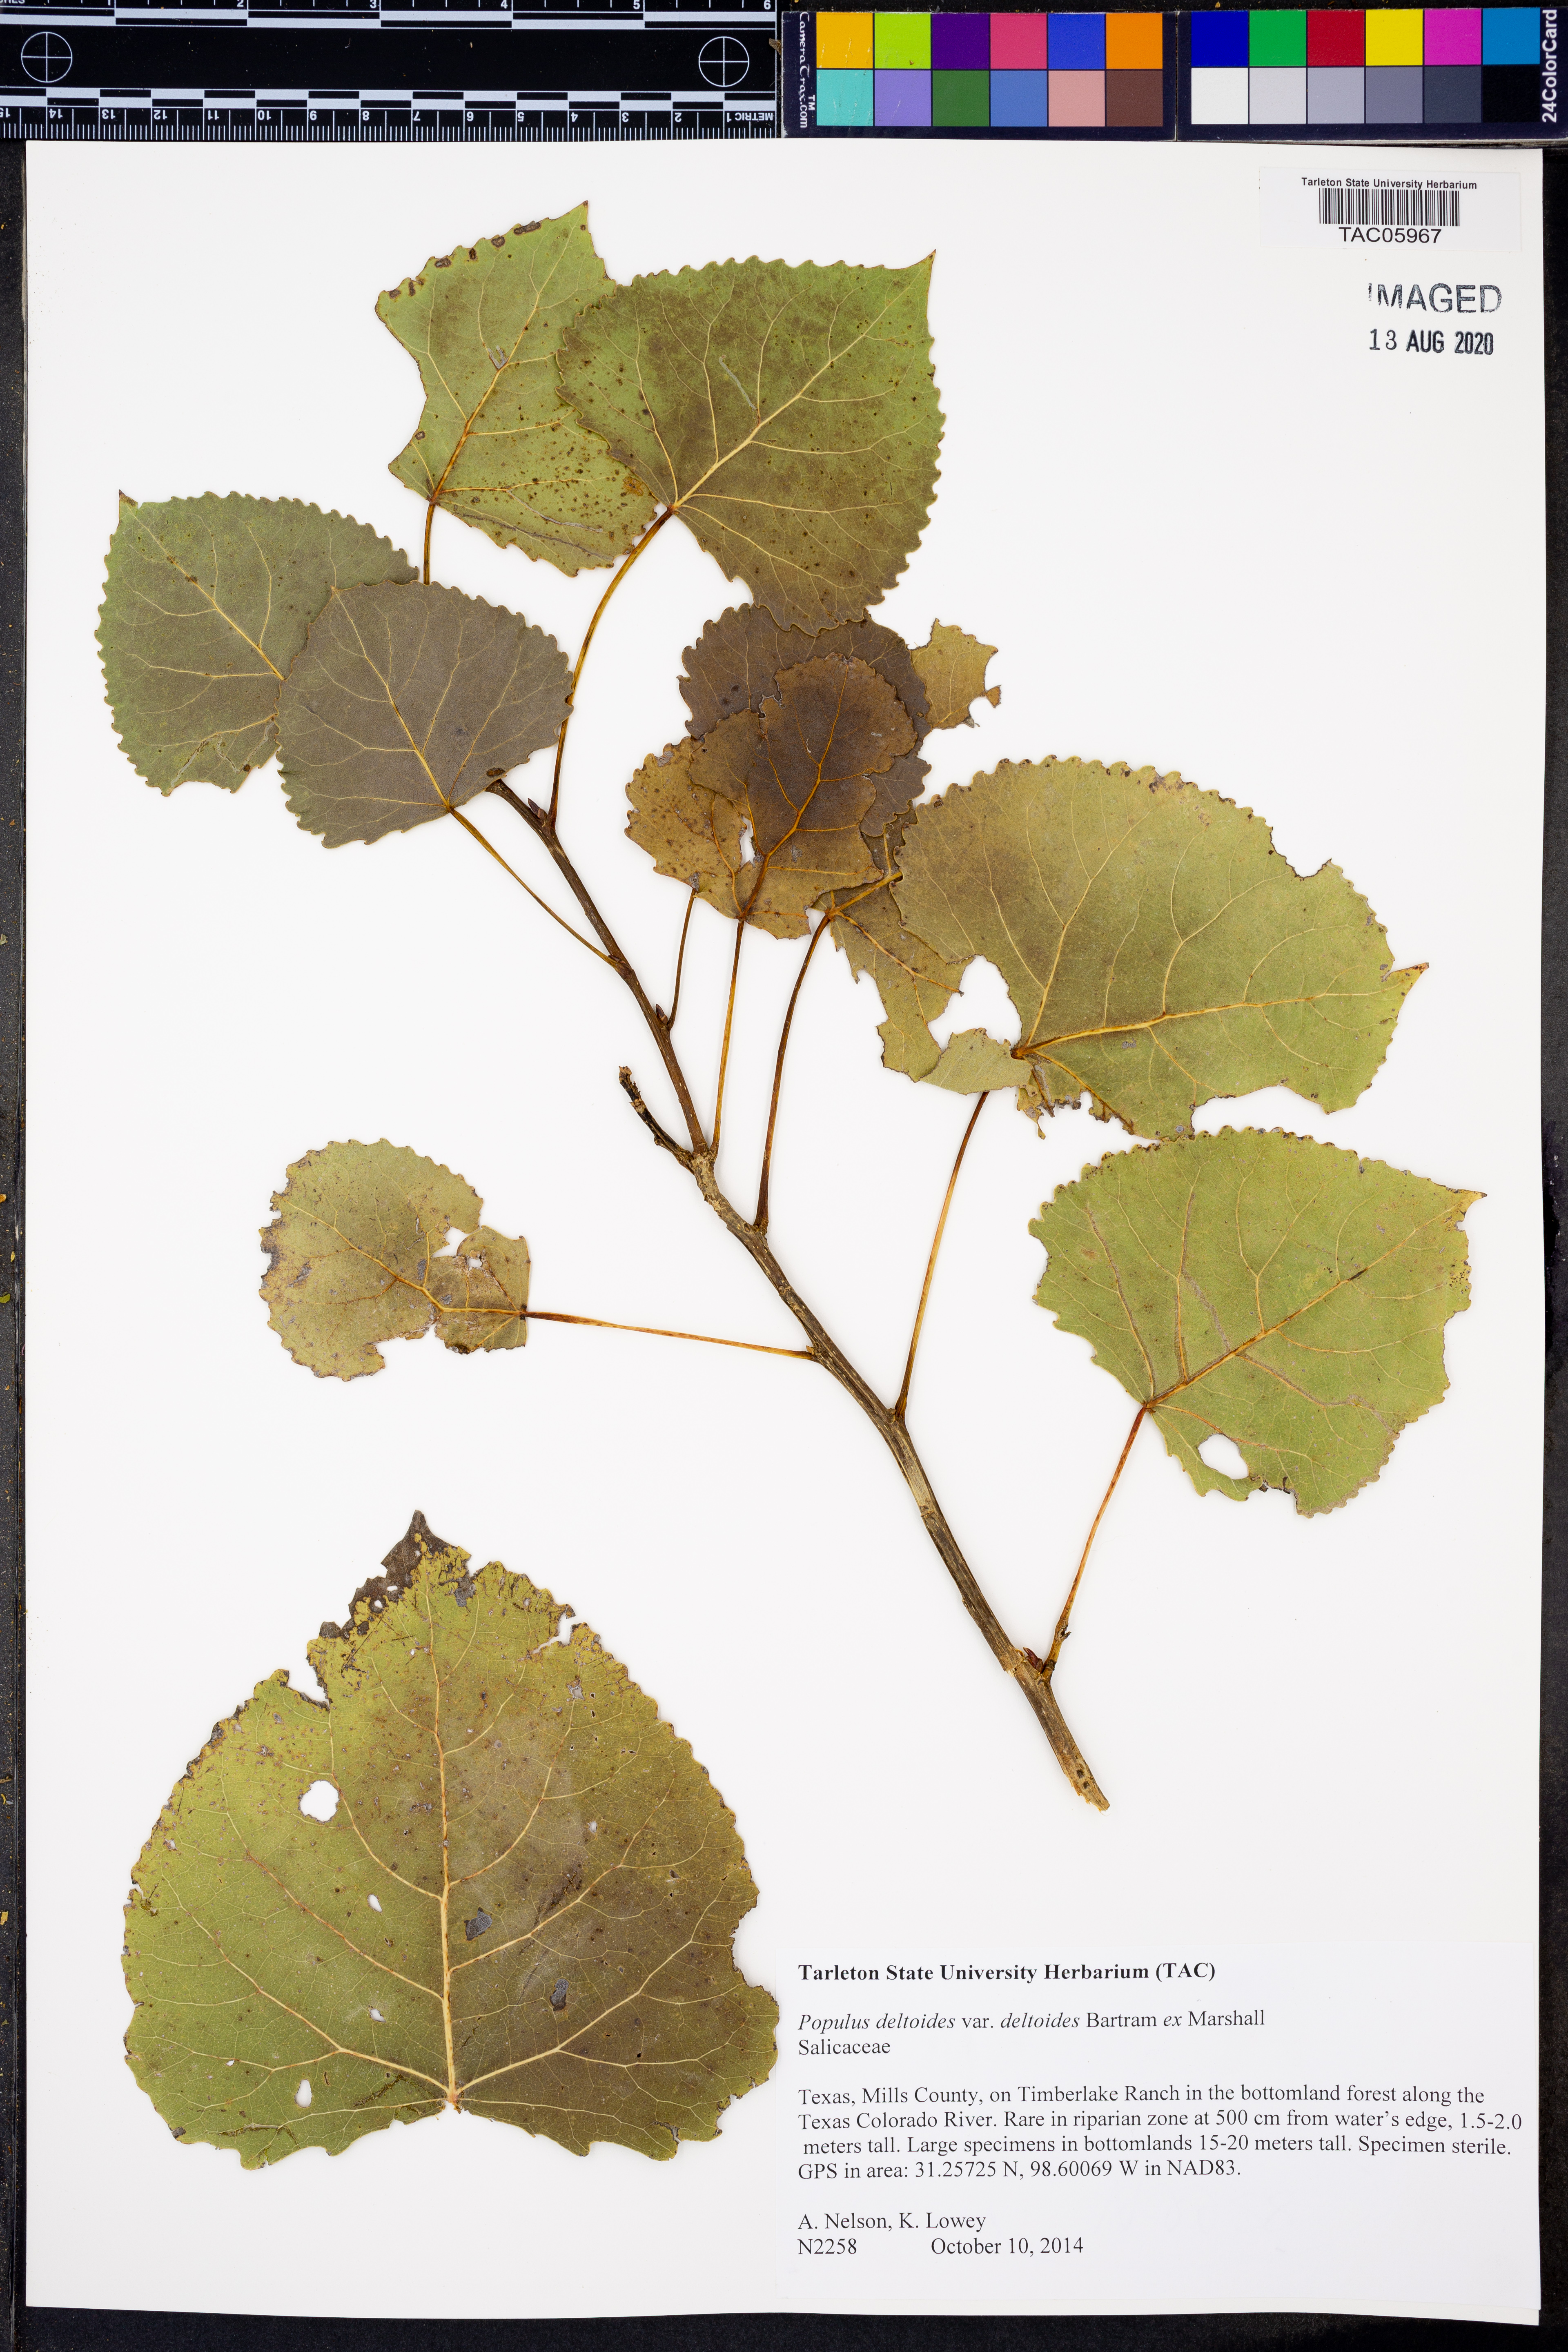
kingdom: Plantae
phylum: Tracheophyta
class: Magnoliopsida
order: Malpighiales
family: Salicaceae
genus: Populus
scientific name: Populus deltoides
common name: Eastern cottonwood
